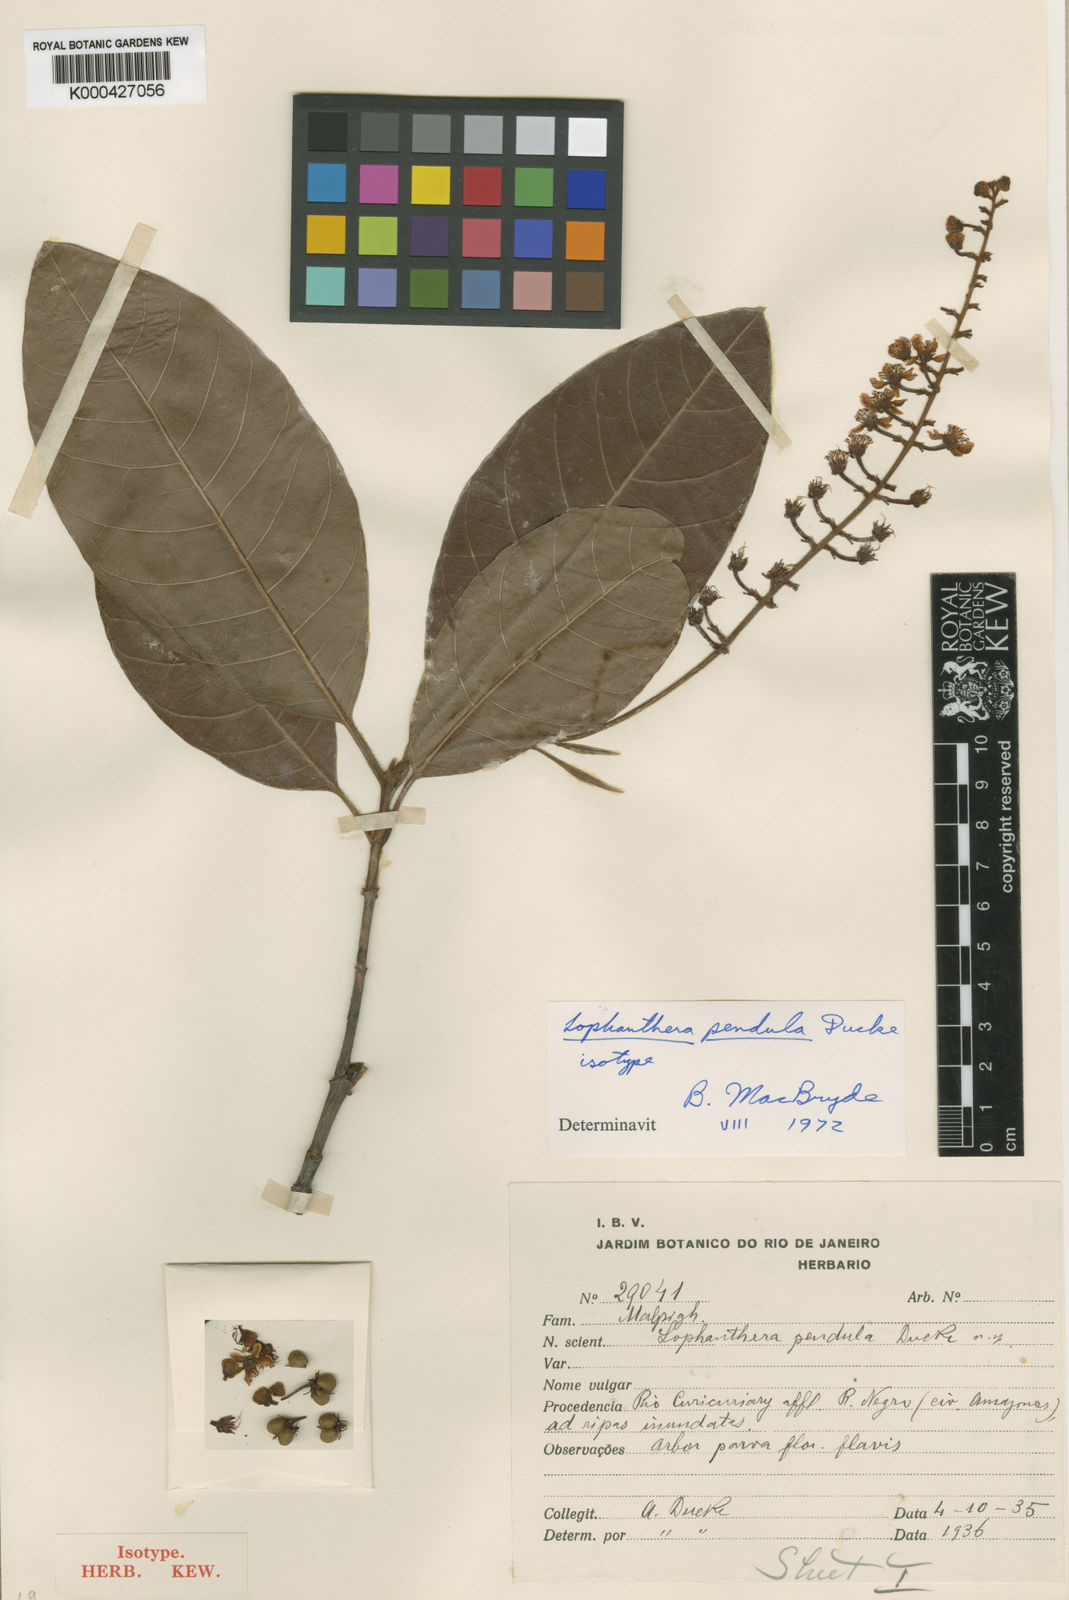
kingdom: Plantae
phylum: Tracheophyta
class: Magnoliopsida
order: Malpighiales
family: Malpighiaceae
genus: Lophanthera
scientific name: Lophanthera pendula
